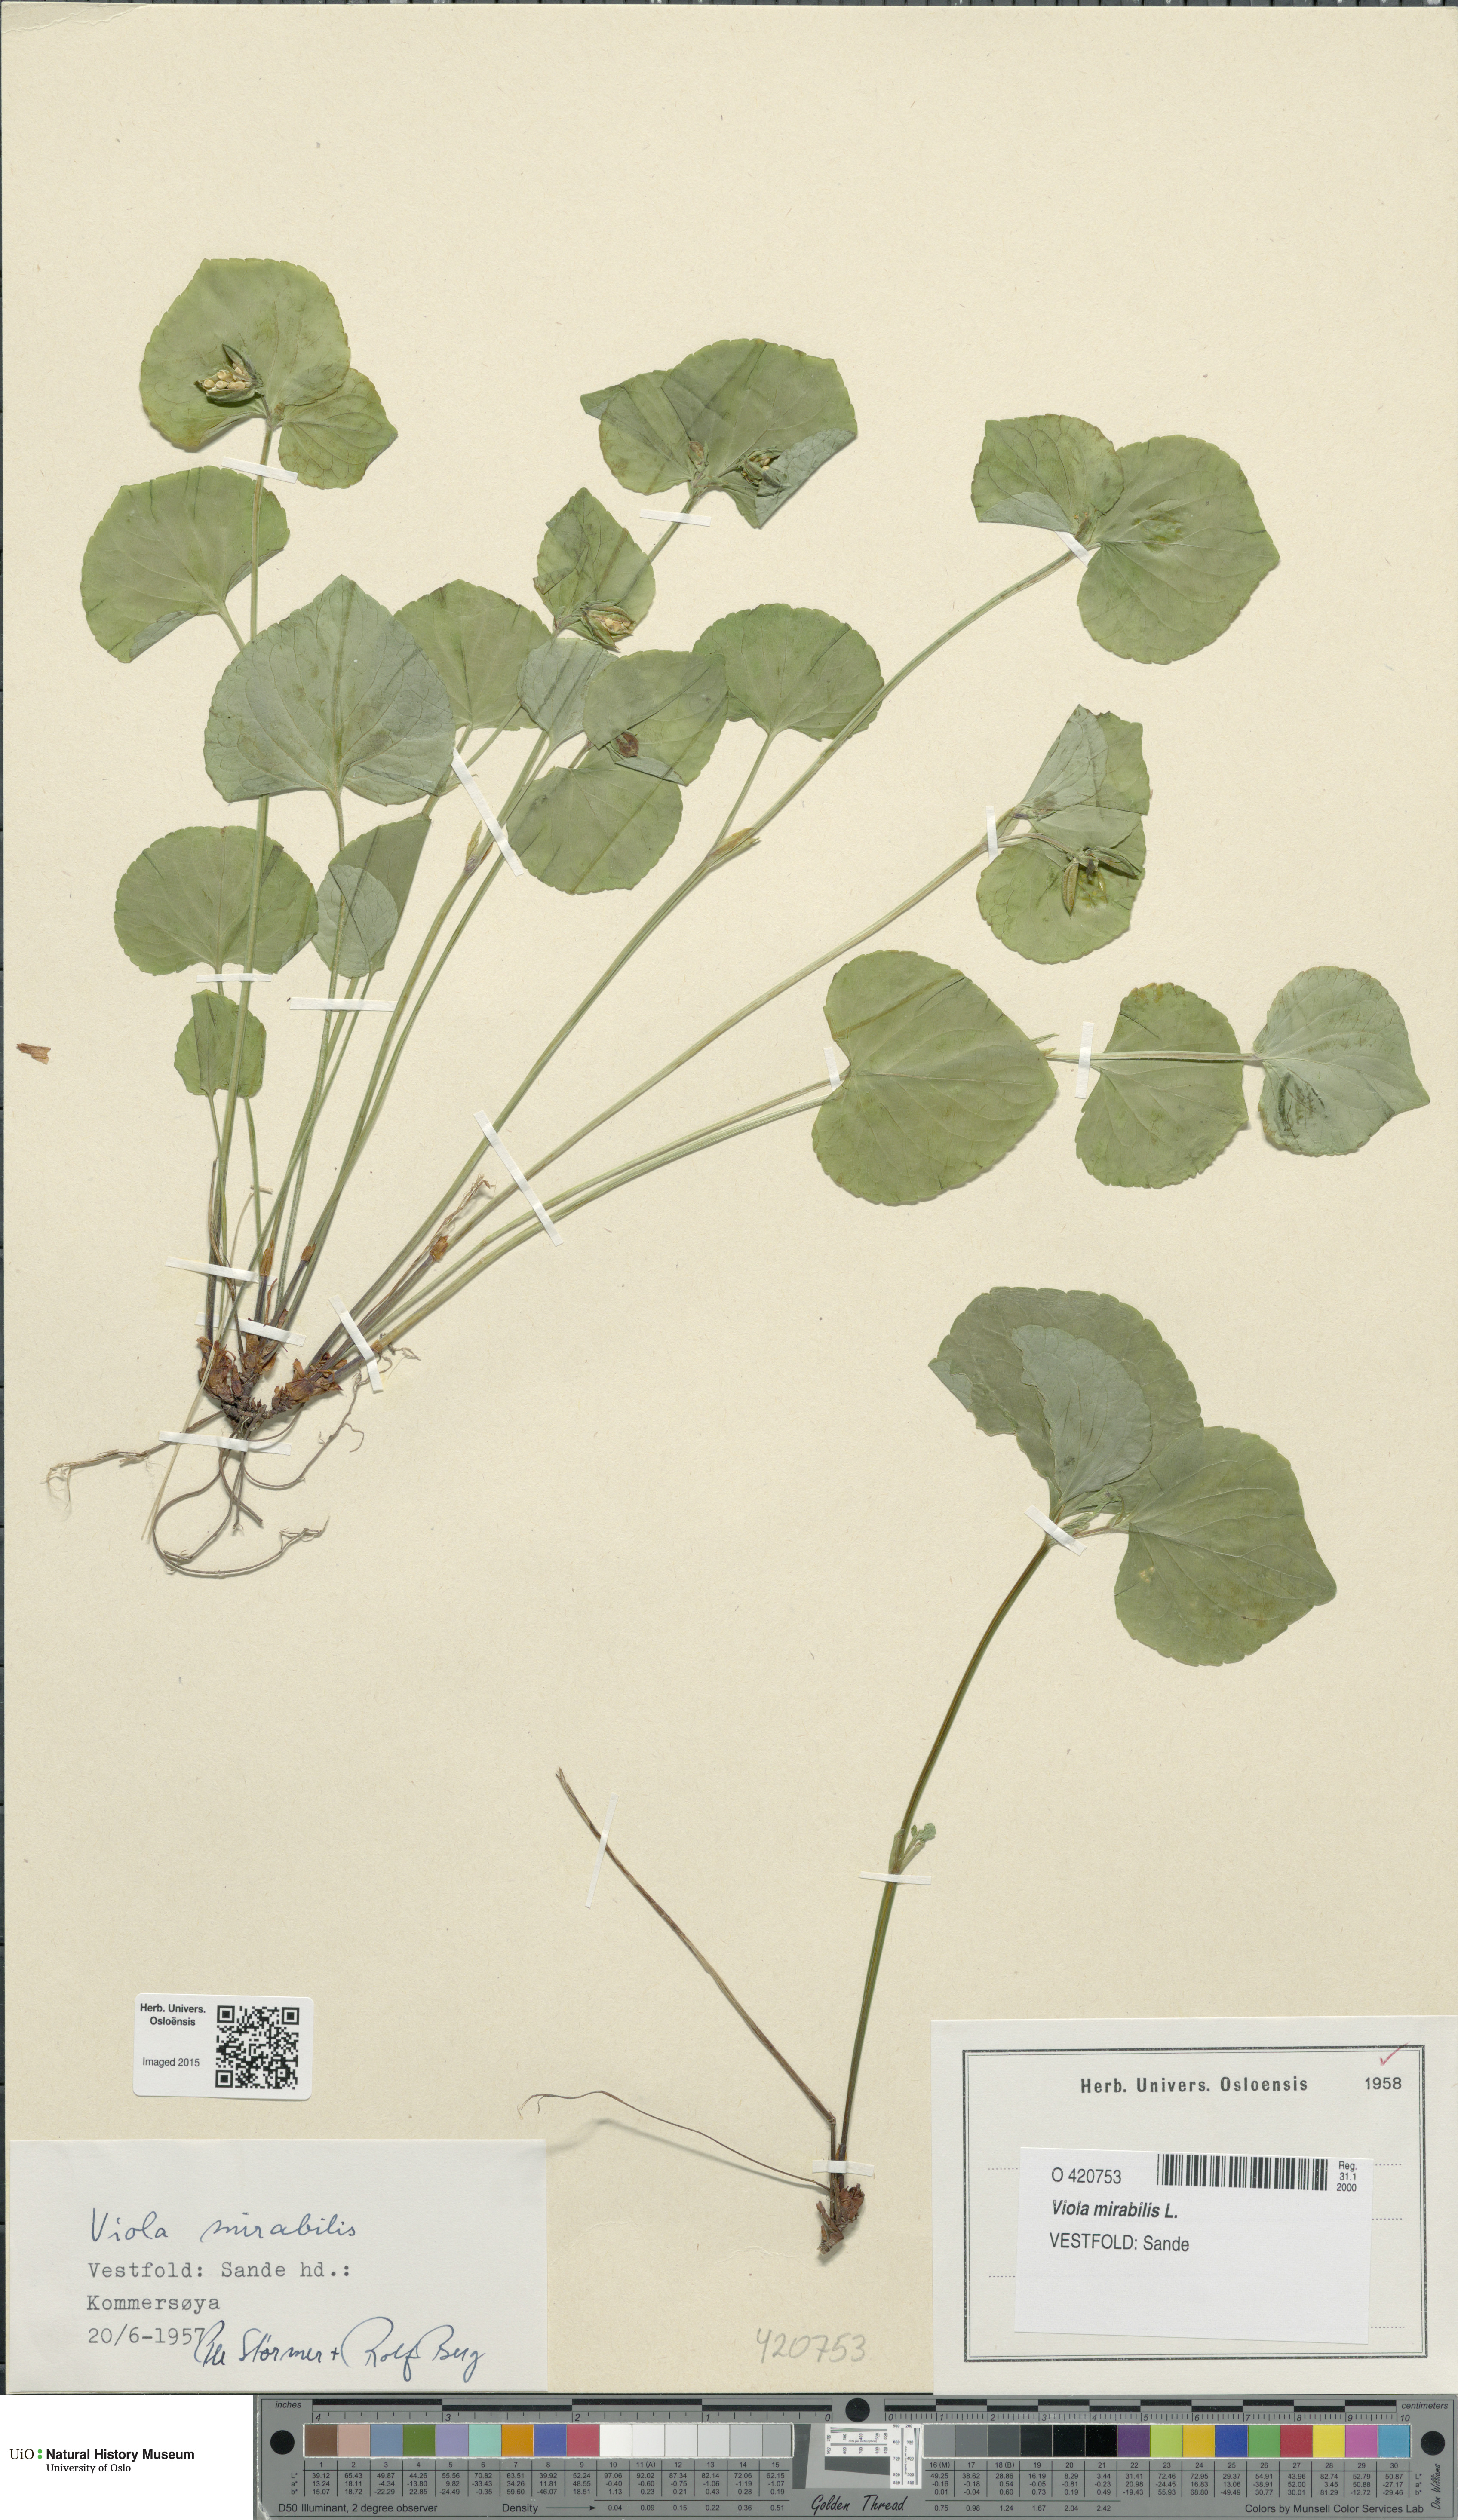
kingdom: Plantae
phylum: Tracheophyta
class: Magnoliopsida
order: Malpighiales
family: Violaceae
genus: Viola
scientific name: Viola mirabilis
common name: Wonder violet
